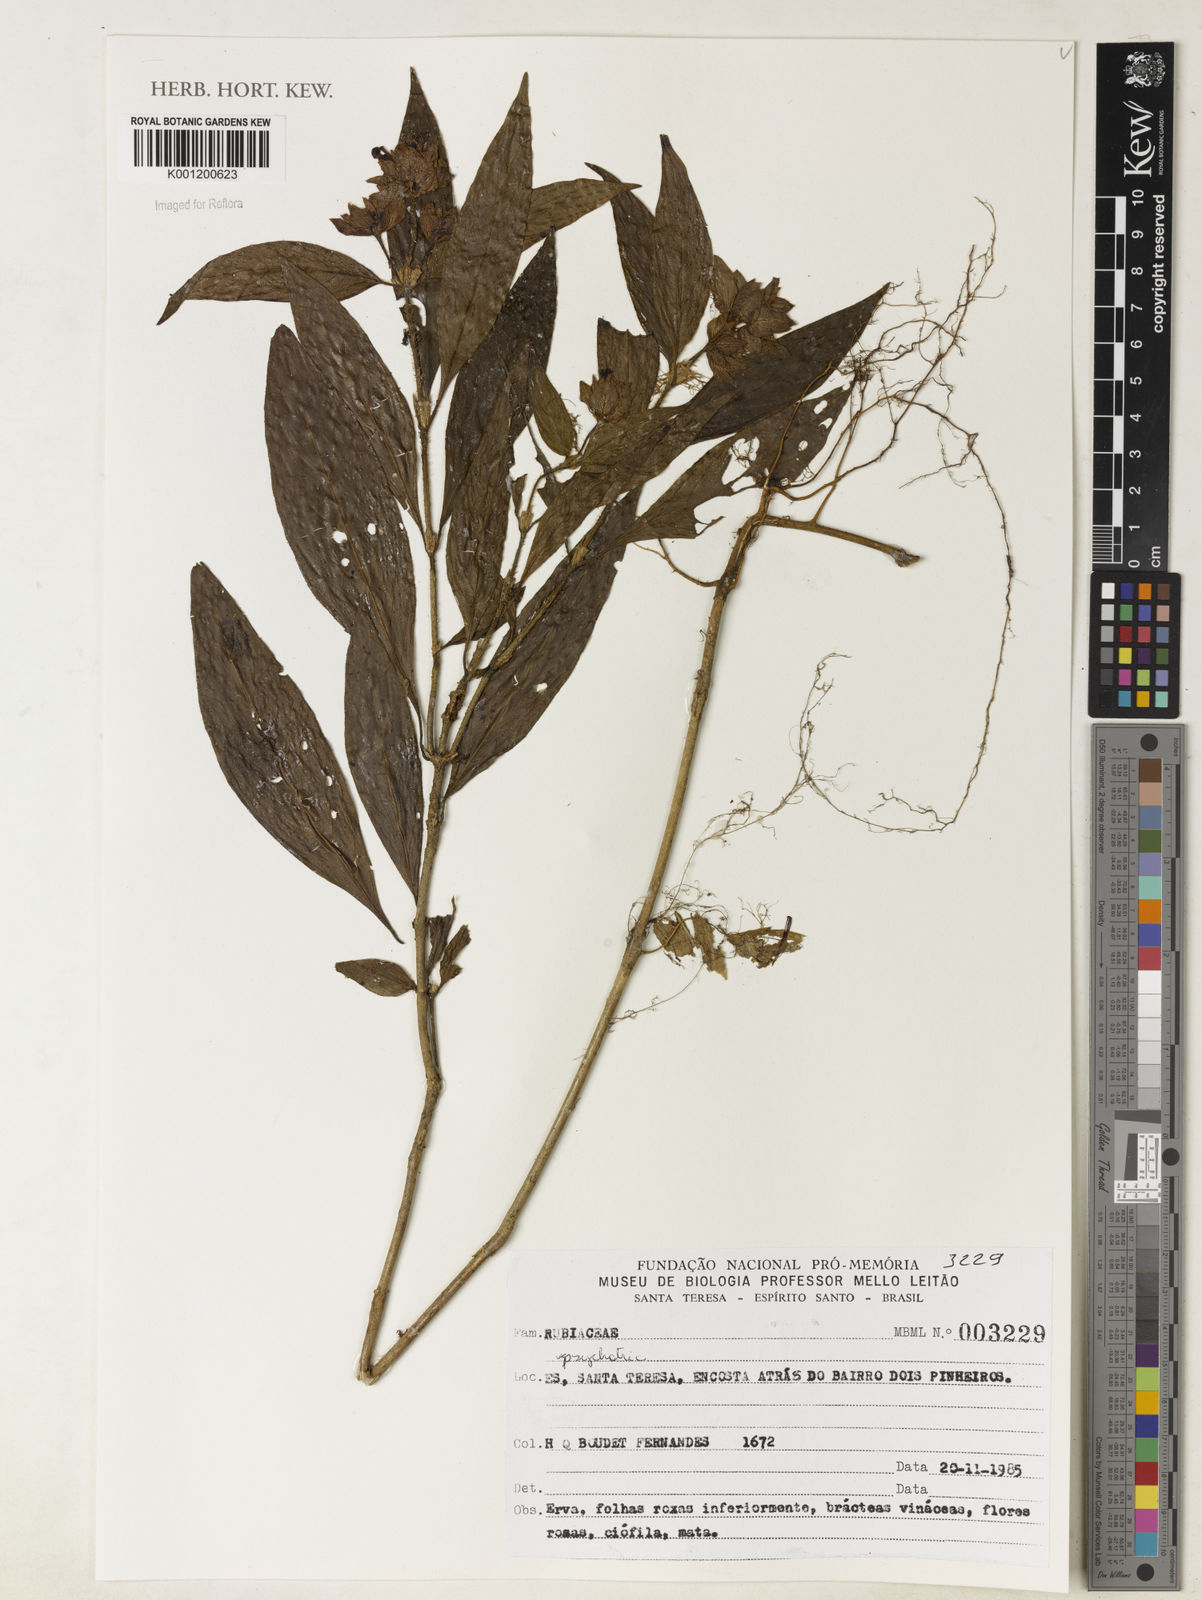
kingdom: Plantae
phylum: Tracheophyta
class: Magnoliopsida
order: Gentianales
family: Rubiaceae
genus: Psychotria
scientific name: Psychotria
